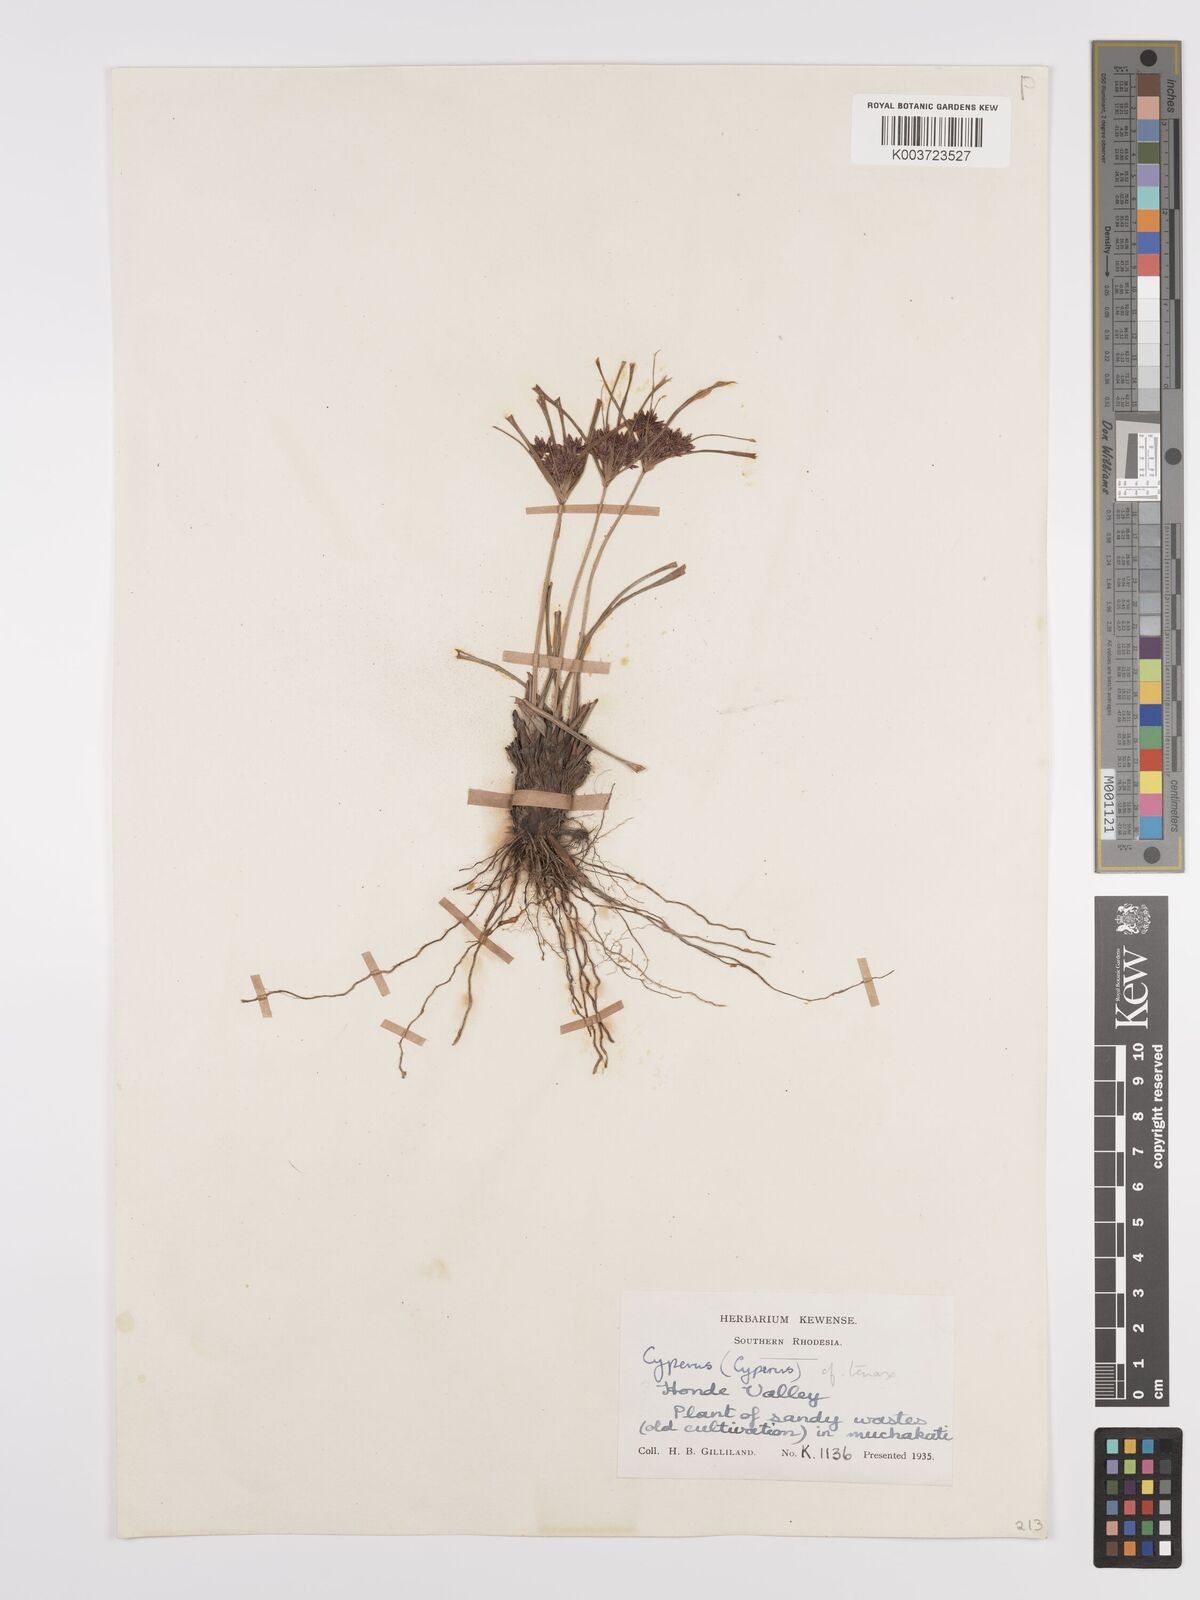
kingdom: Plantae
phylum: Tracheophyta
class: Liliopsida
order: Poales
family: Cyperaceae
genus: Cyperus
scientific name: Cyperus tenax
